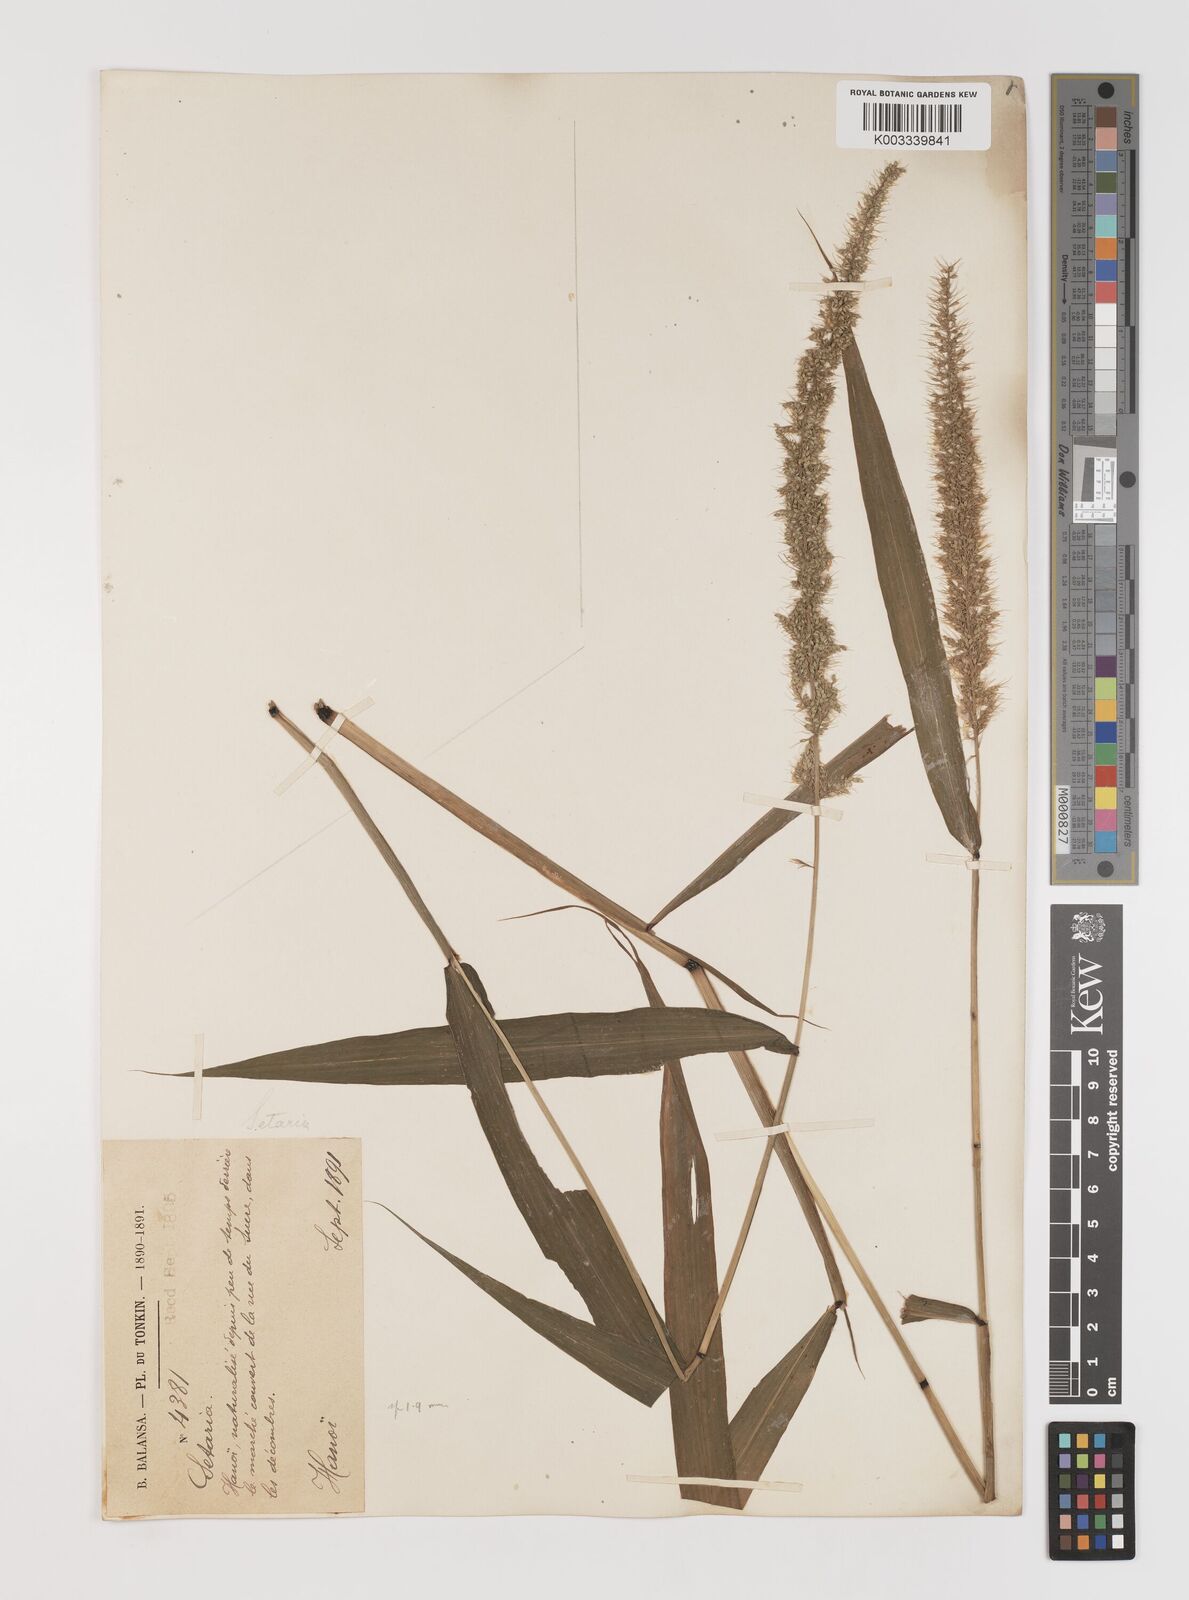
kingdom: Plantae
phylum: Tracheophyta
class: Liliopsida
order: Poales
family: Poaceae
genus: Setaria
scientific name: Setaria verticillata
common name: Hooked bristlegrass
